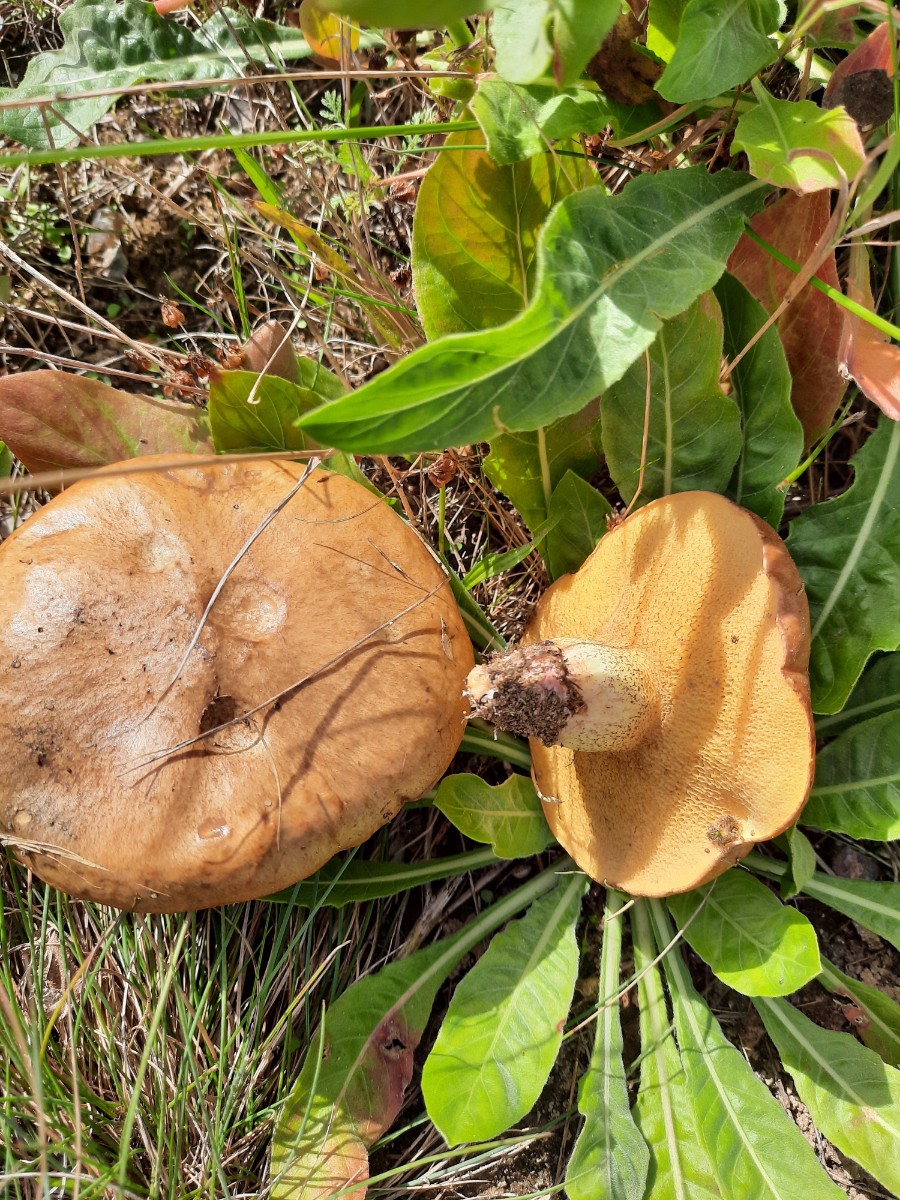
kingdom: Fungi
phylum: Basidiomycota
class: Agaricomycetes
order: Boletales
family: Suillaceae
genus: Suillus
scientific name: Suillus collinitus
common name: rosafodet slimrørhat
